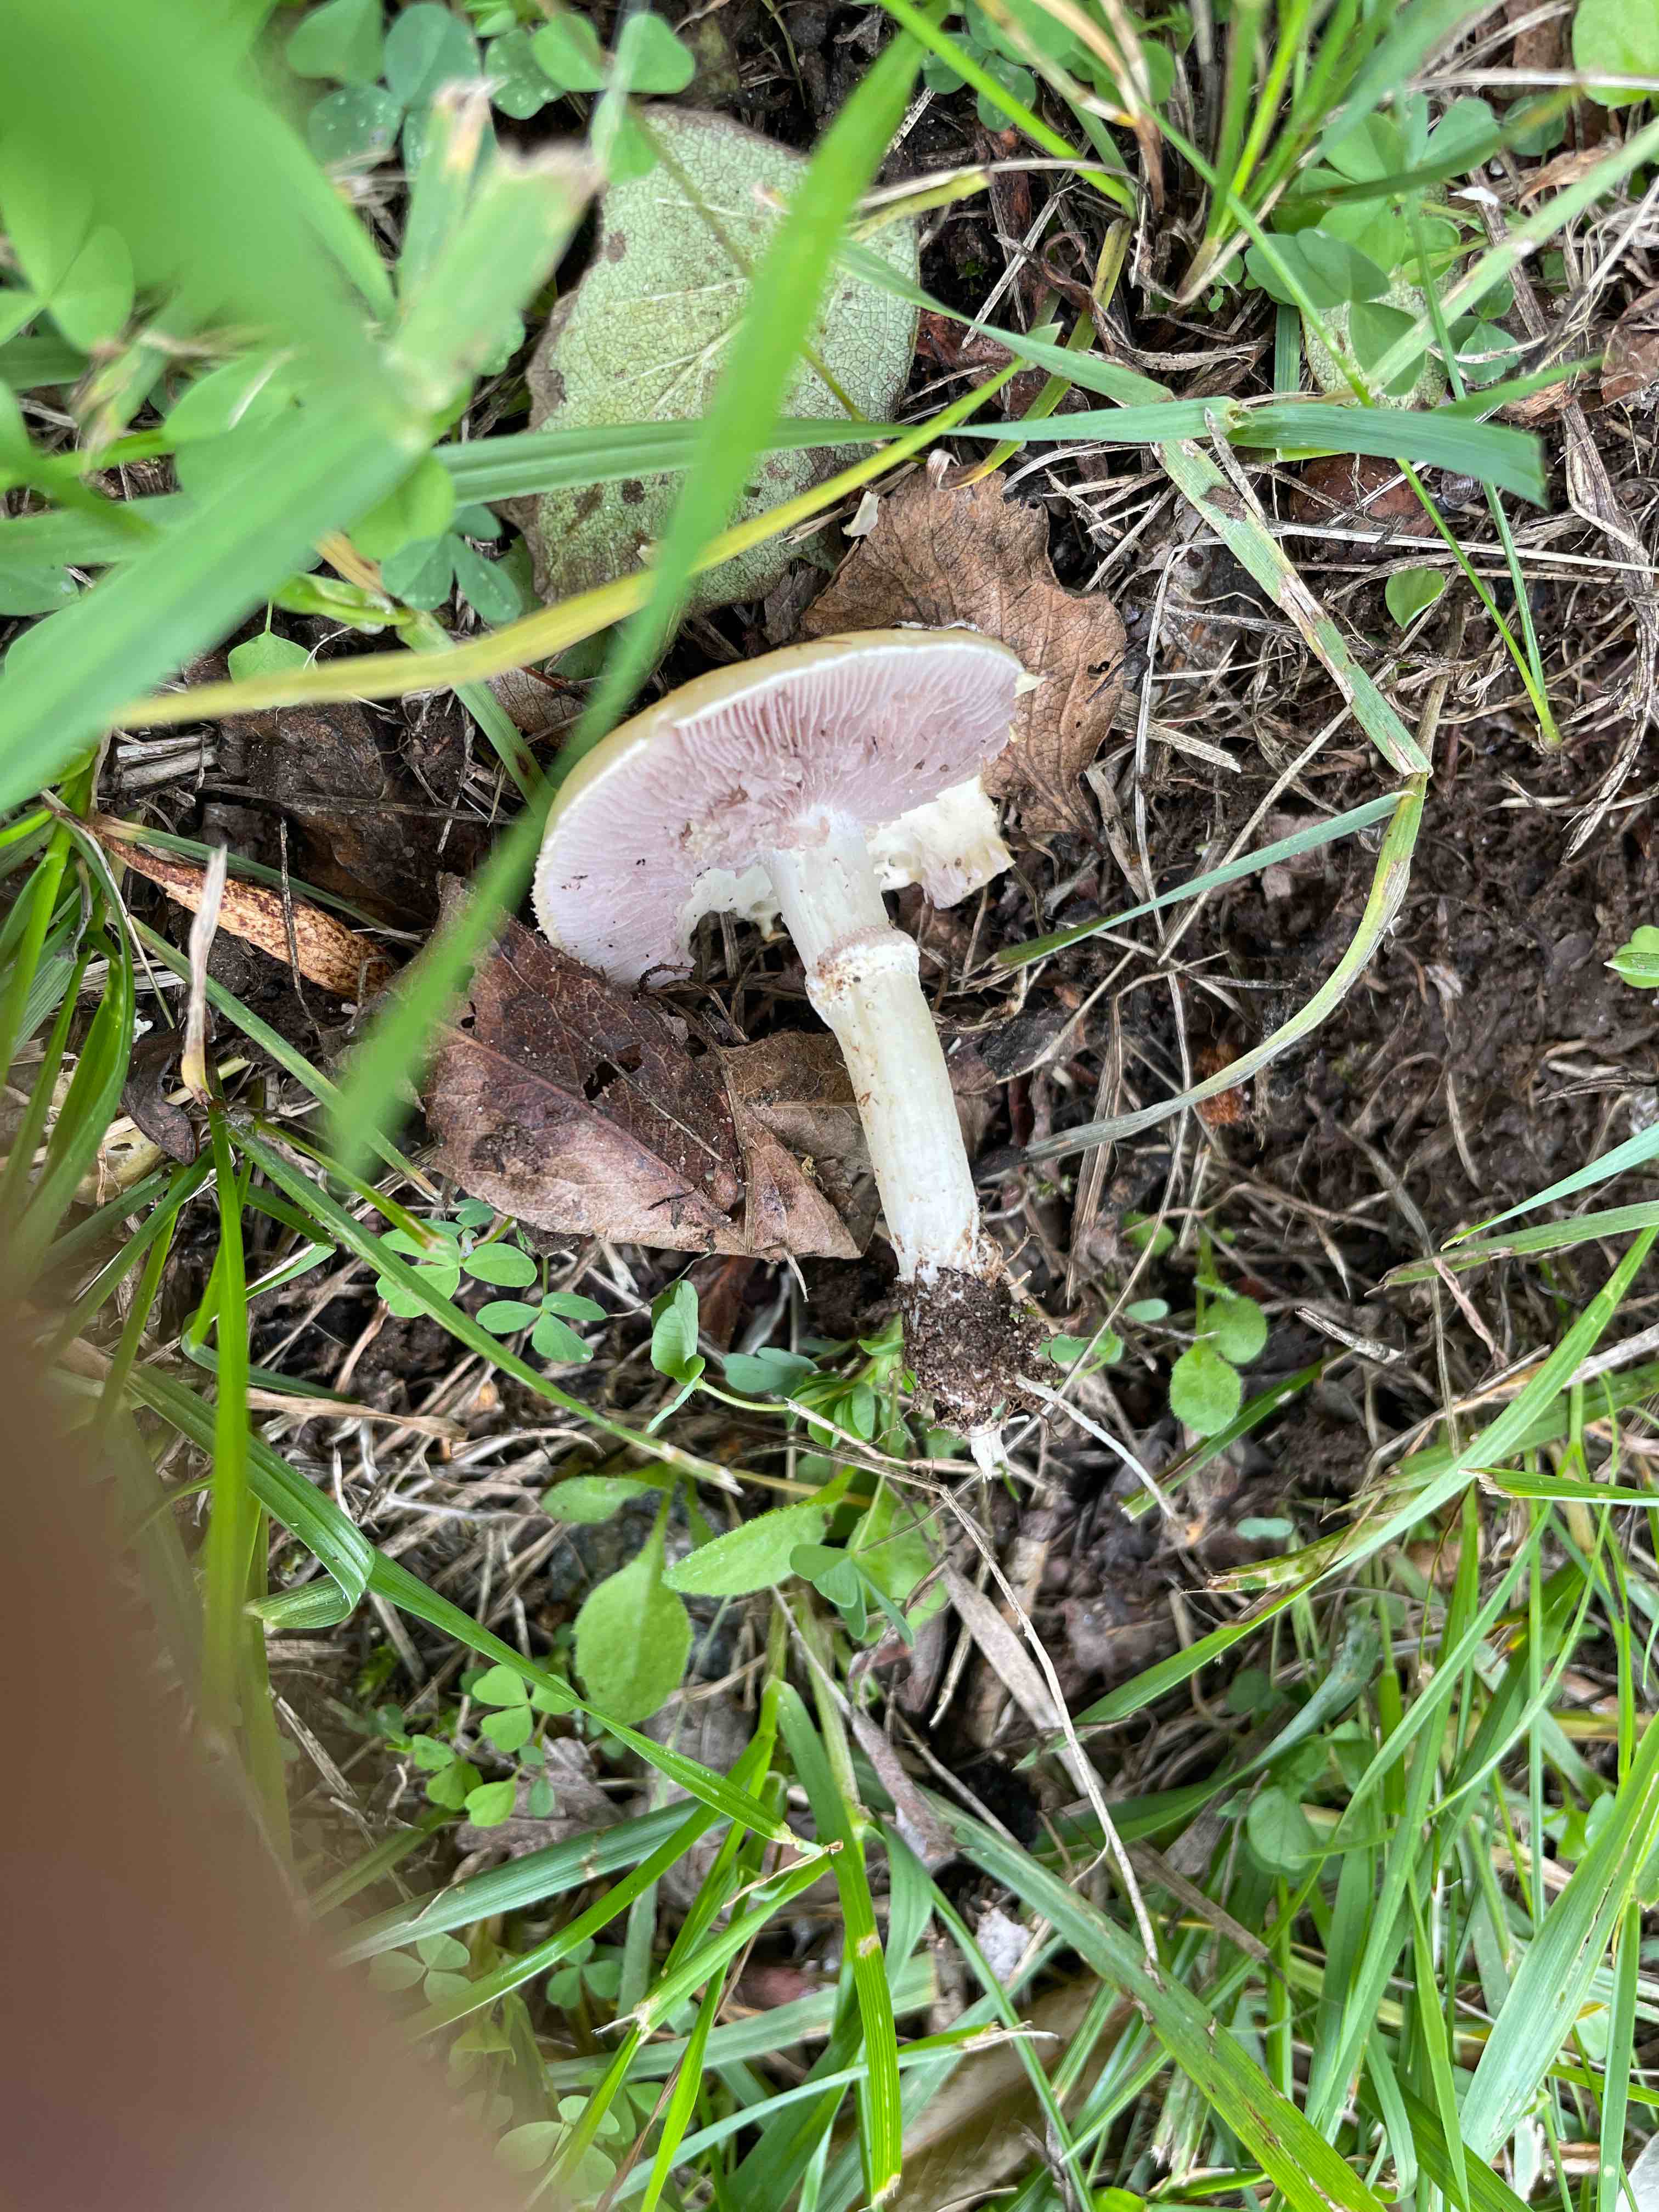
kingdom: Fungi
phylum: Basidiomycota
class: Agaricomycetes
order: Agaricales
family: Hymenogastraceae
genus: Psilocybe
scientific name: Psilocybe coronilla
